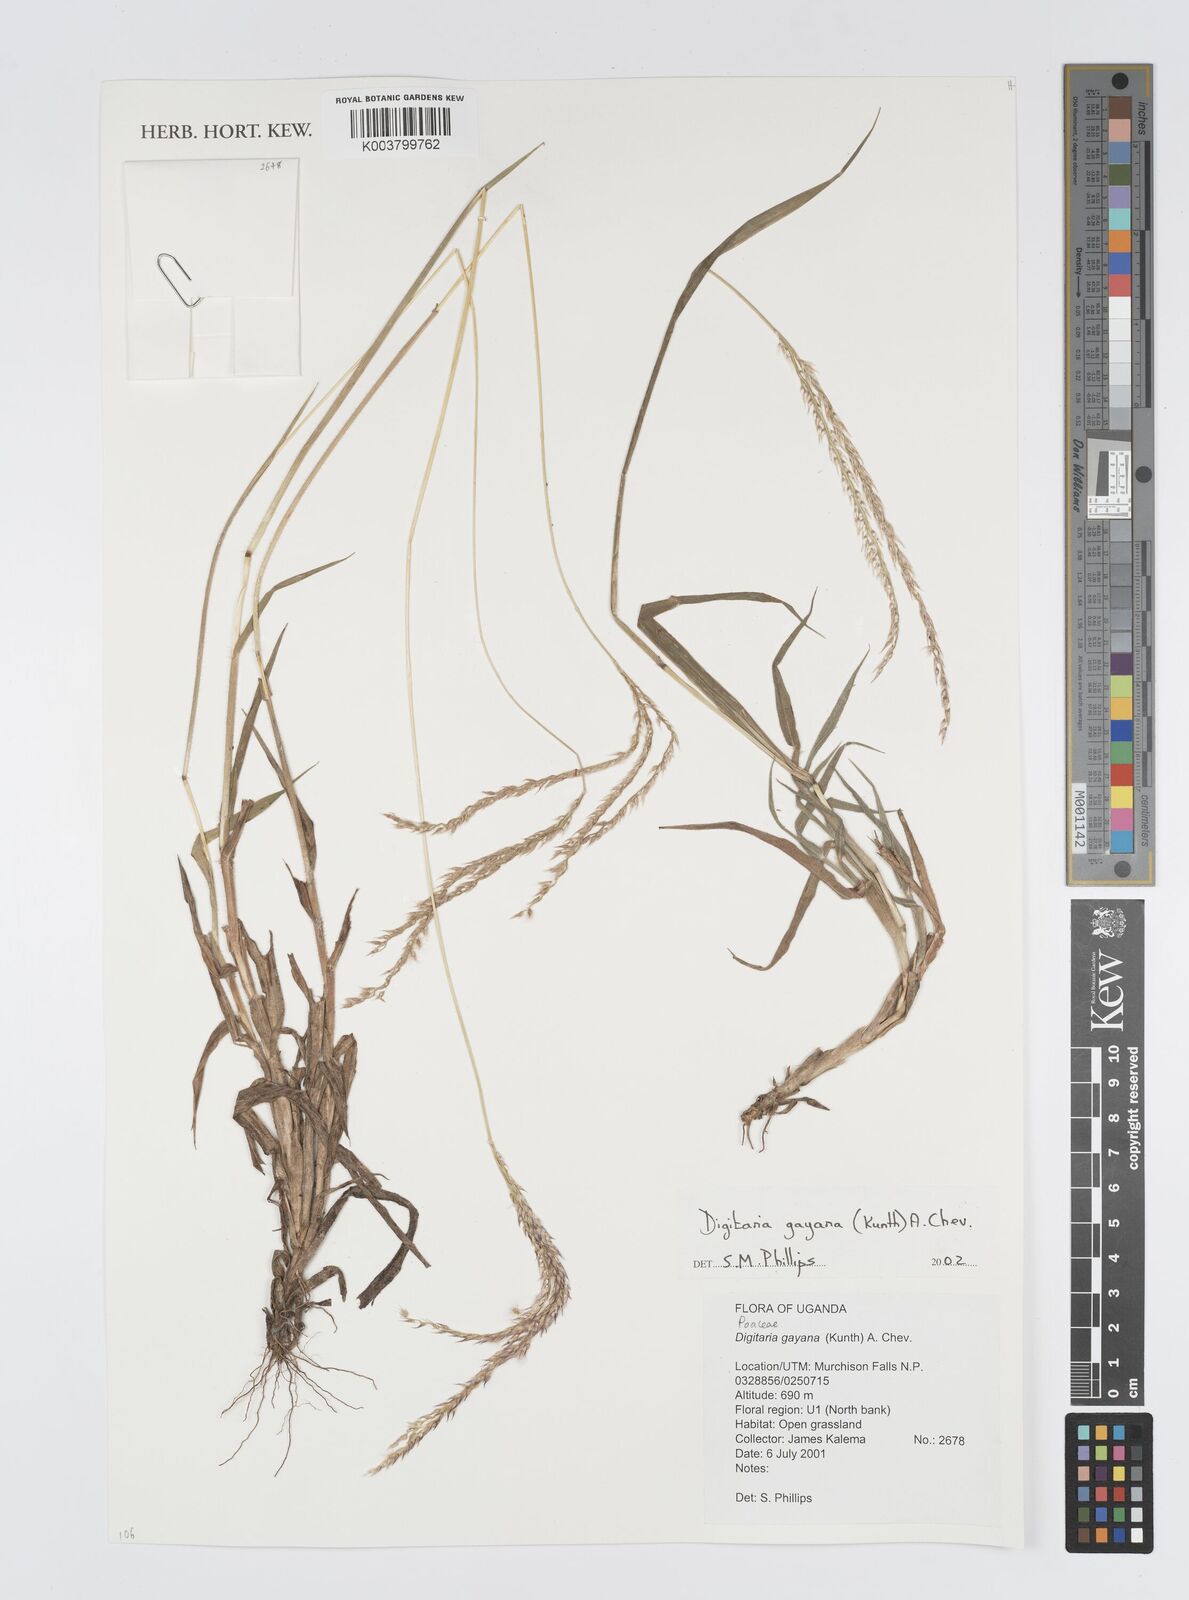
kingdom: Plantae
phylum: Tracheophyta
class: Liliopsida
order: Poales
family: Poaceae
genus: Digitaria
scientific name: Digitaria gayana
